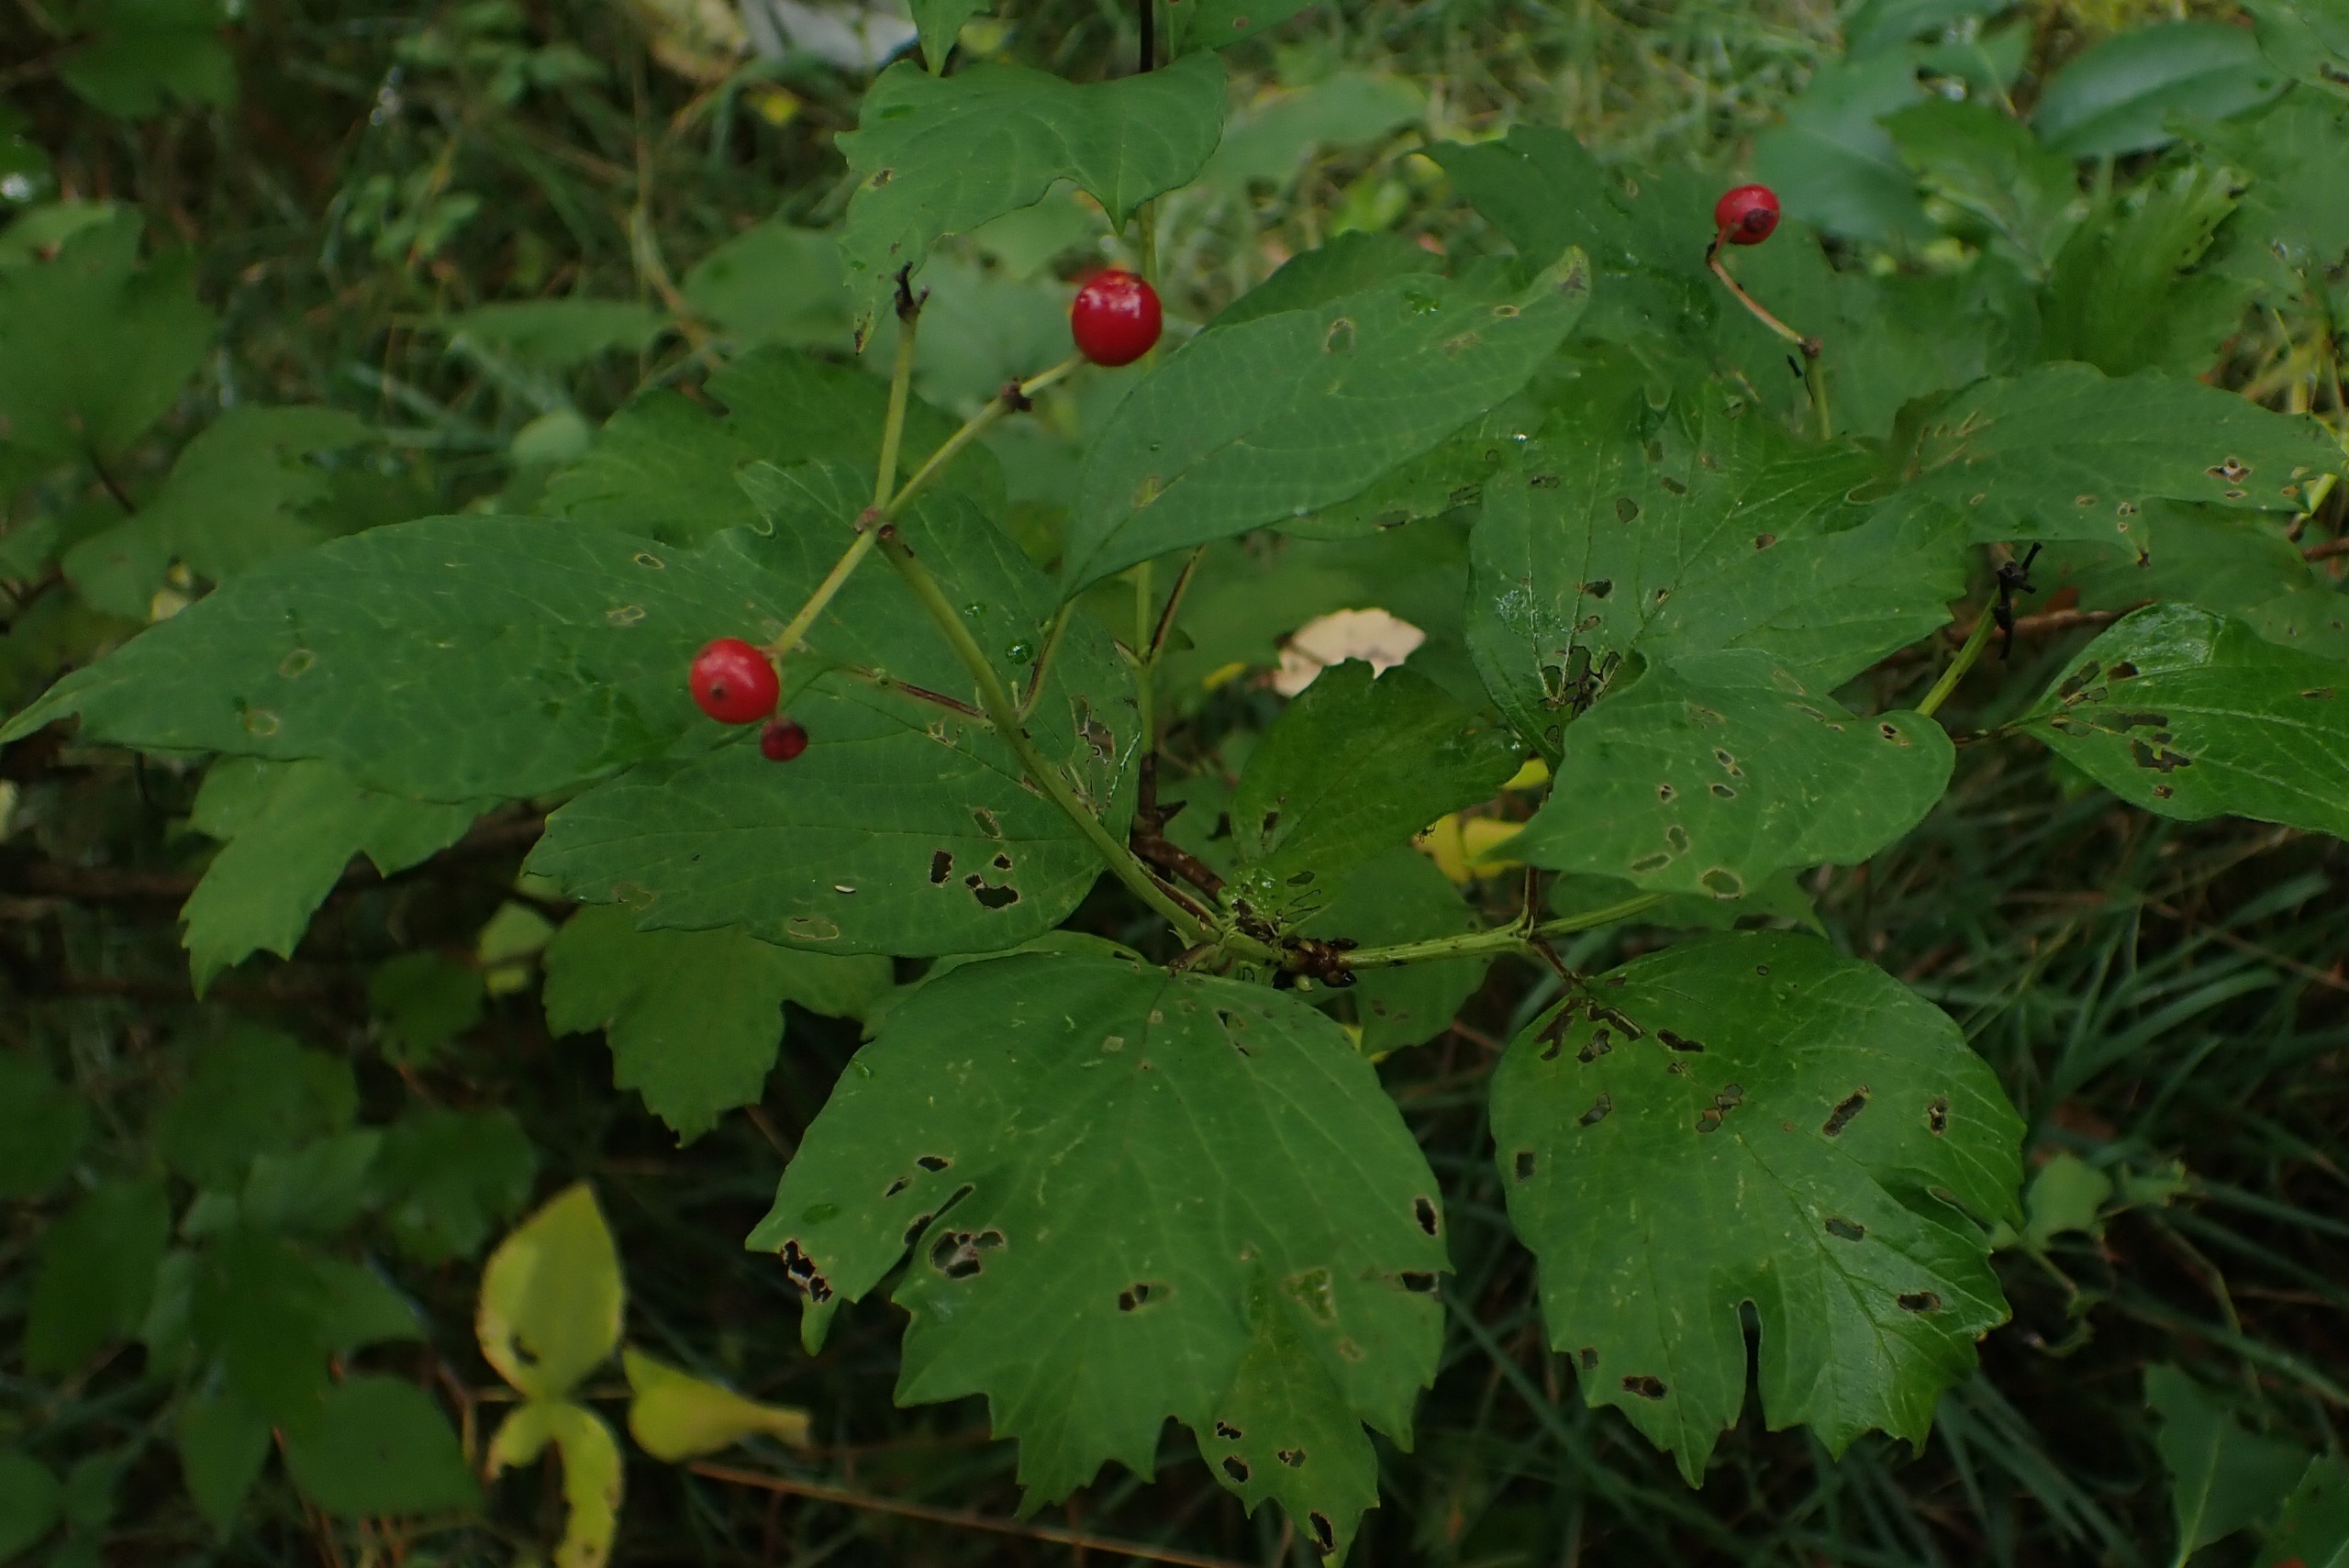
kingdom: Plantae
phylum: Tracheophyta
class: Magnoliopsida
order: Dipsacales
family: Viburnaceae
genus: Viburnum
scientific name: Viburnum opulus
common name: Kvalkved
